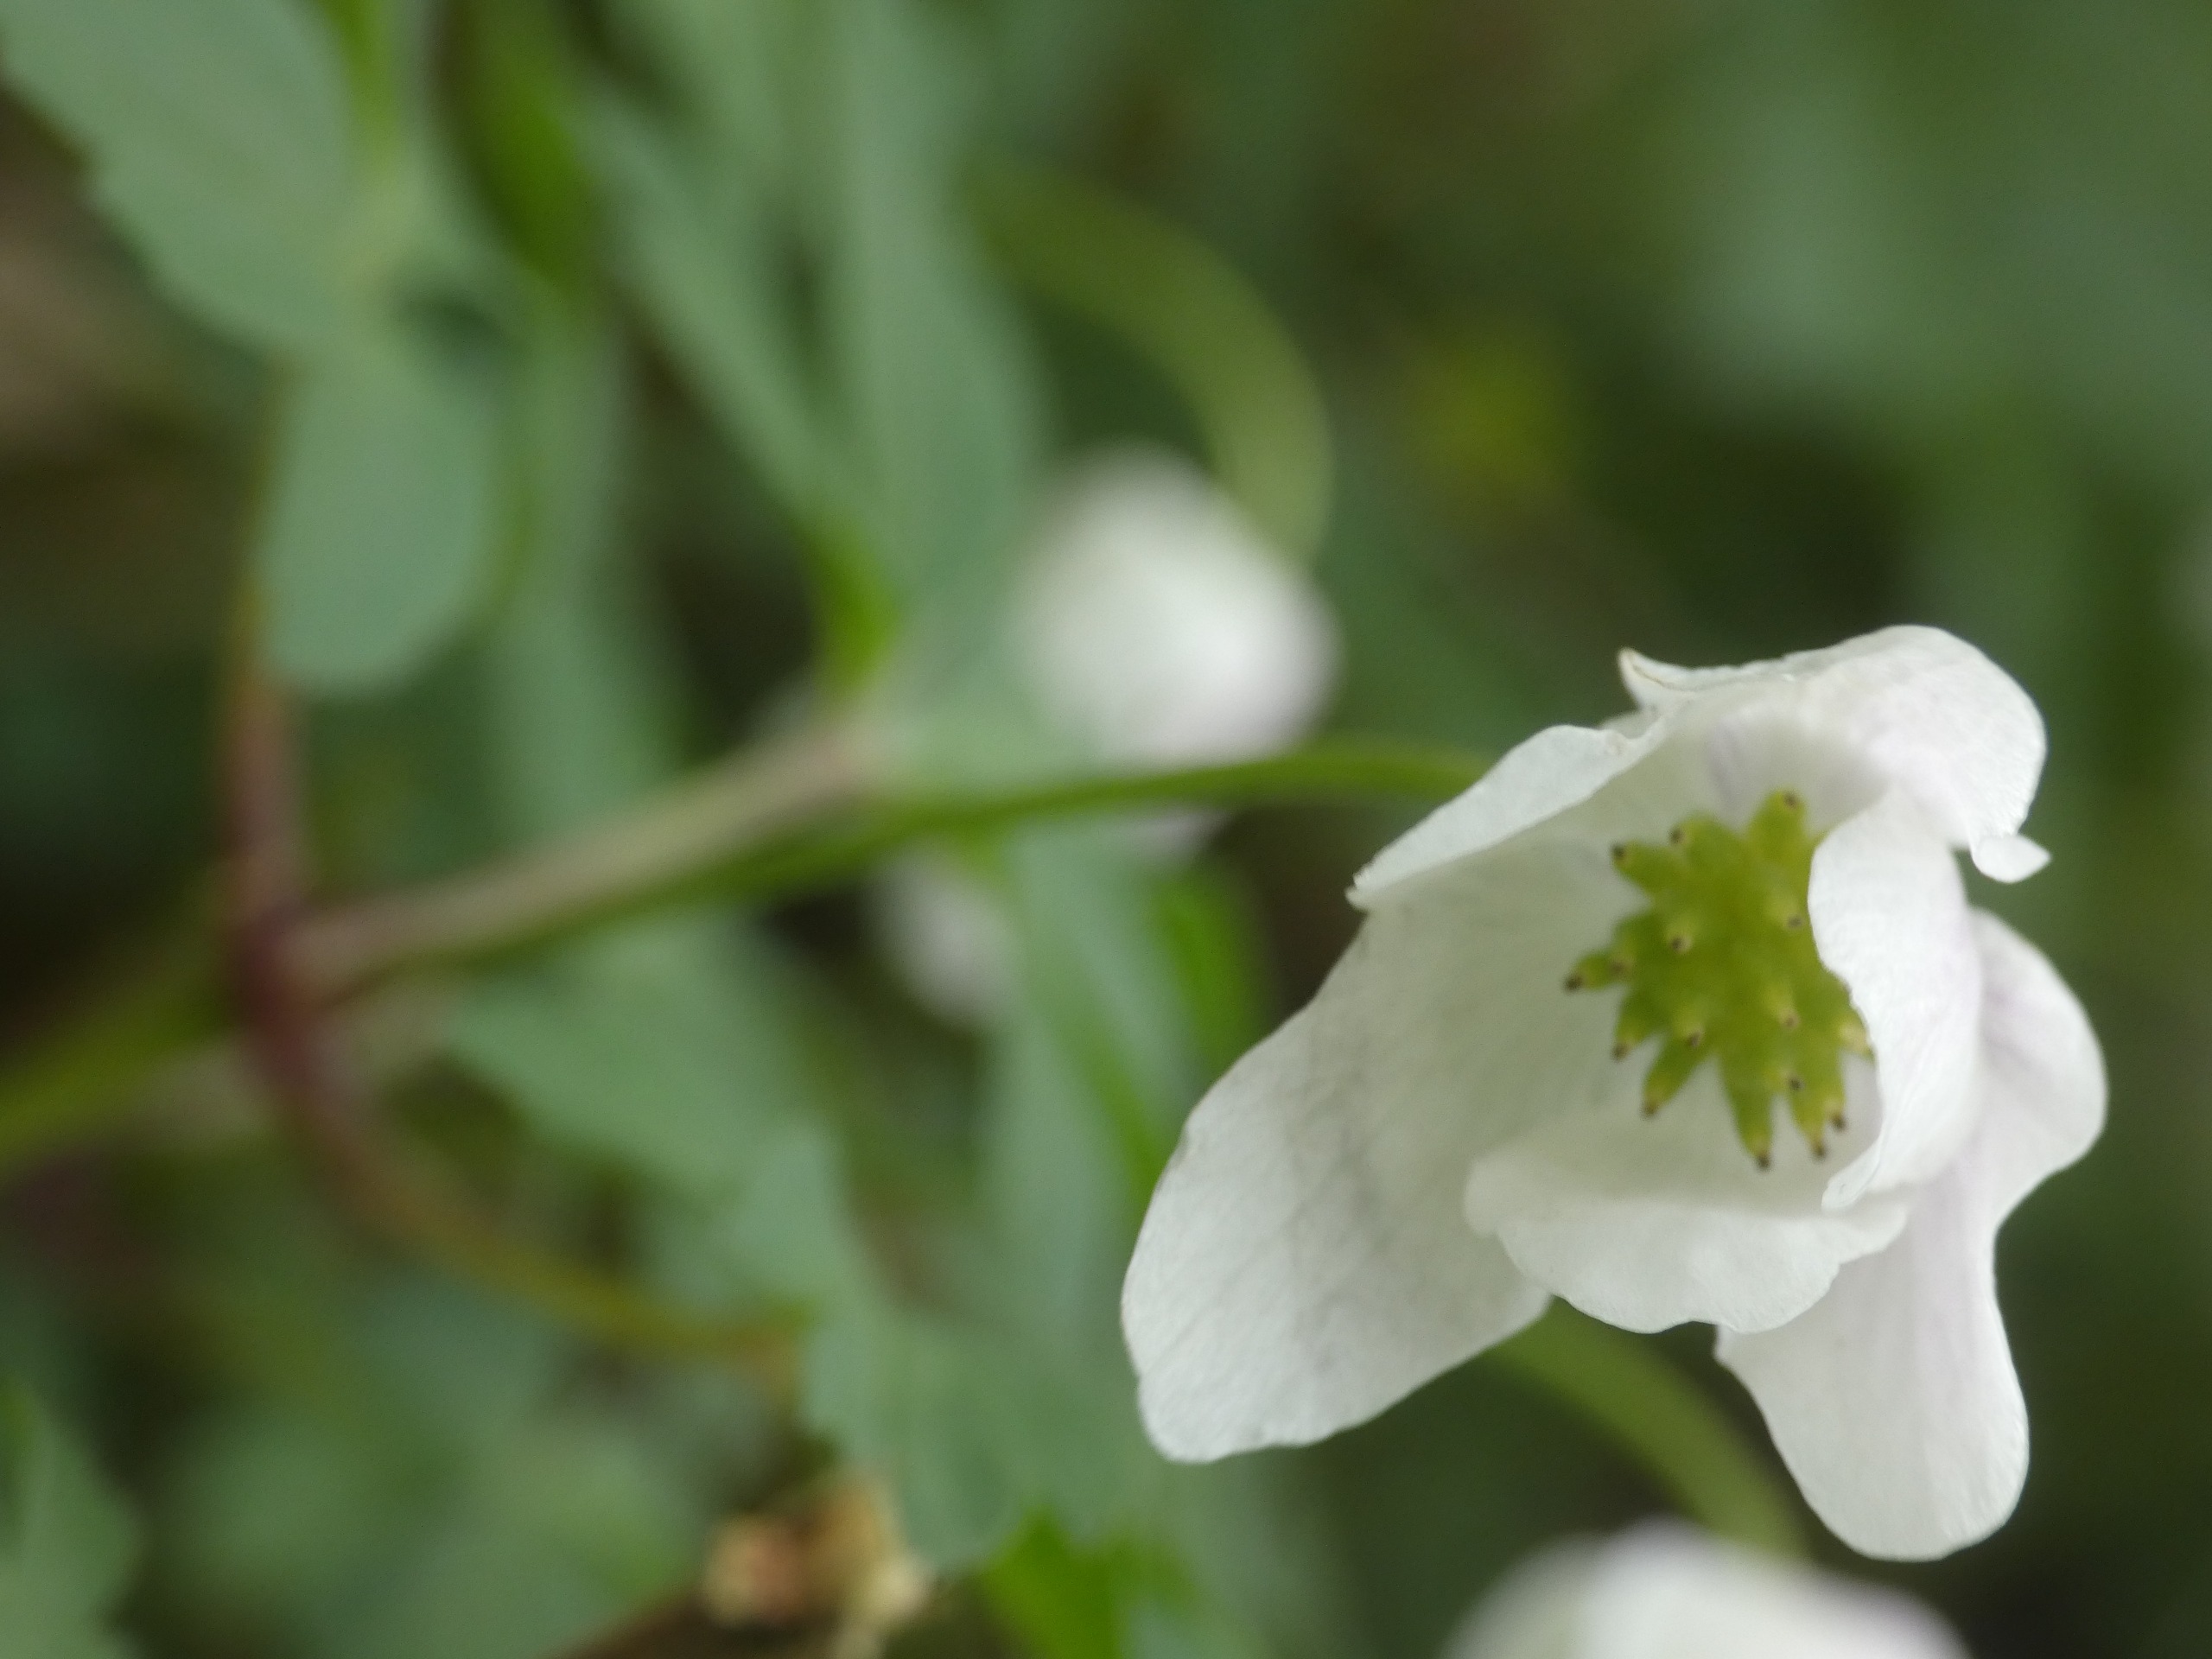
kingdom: Plantae
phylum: Tracheophyta
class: Magnoliopsida
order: Ranunculales
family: Ranunculaceae
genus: Anemone
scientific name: Anemone nemorosa
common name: Hvid anemone
